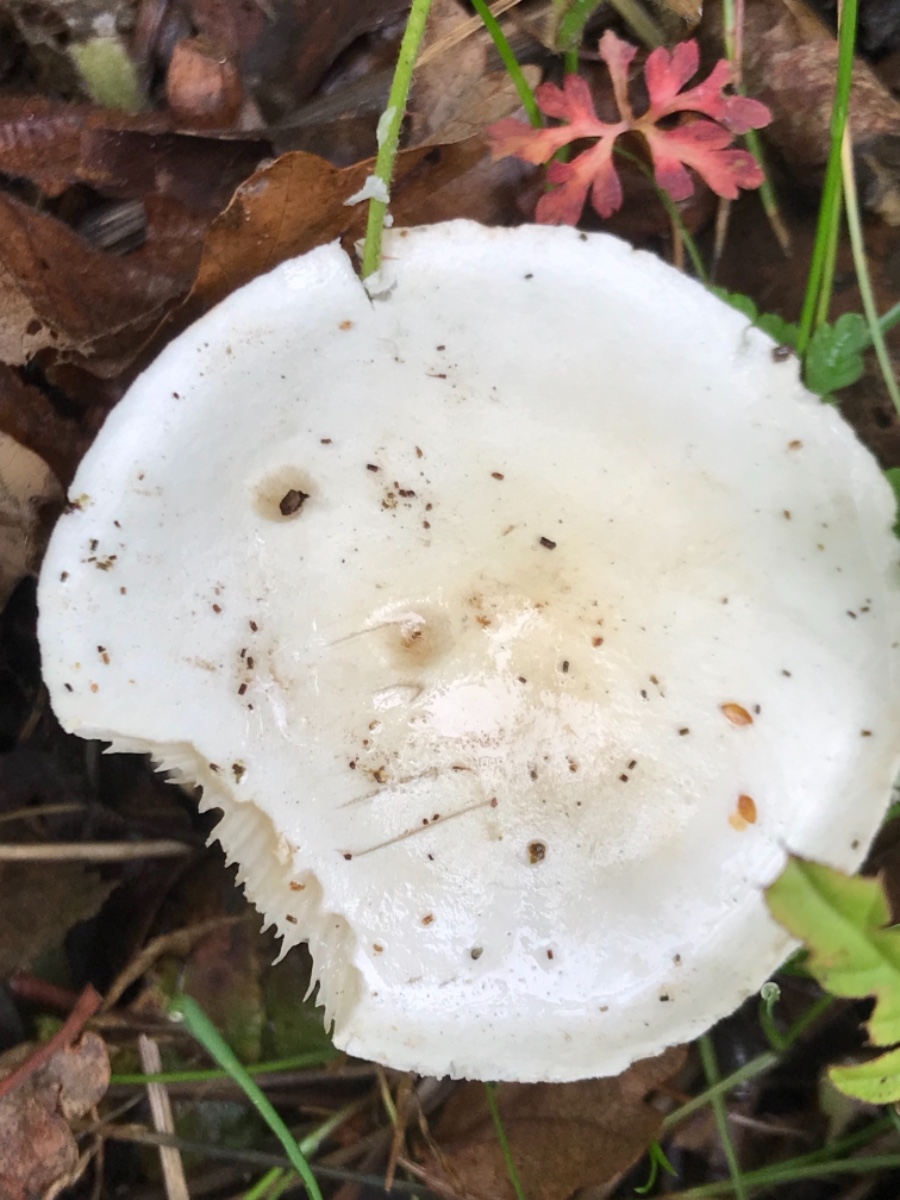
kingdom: Fungi
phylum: Basidiomycota
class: Agaricomycetes
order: Agaricales
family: Tricholomataceae
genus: Tricholoma
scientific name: Tricholoma album
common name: honning-ridderhat
